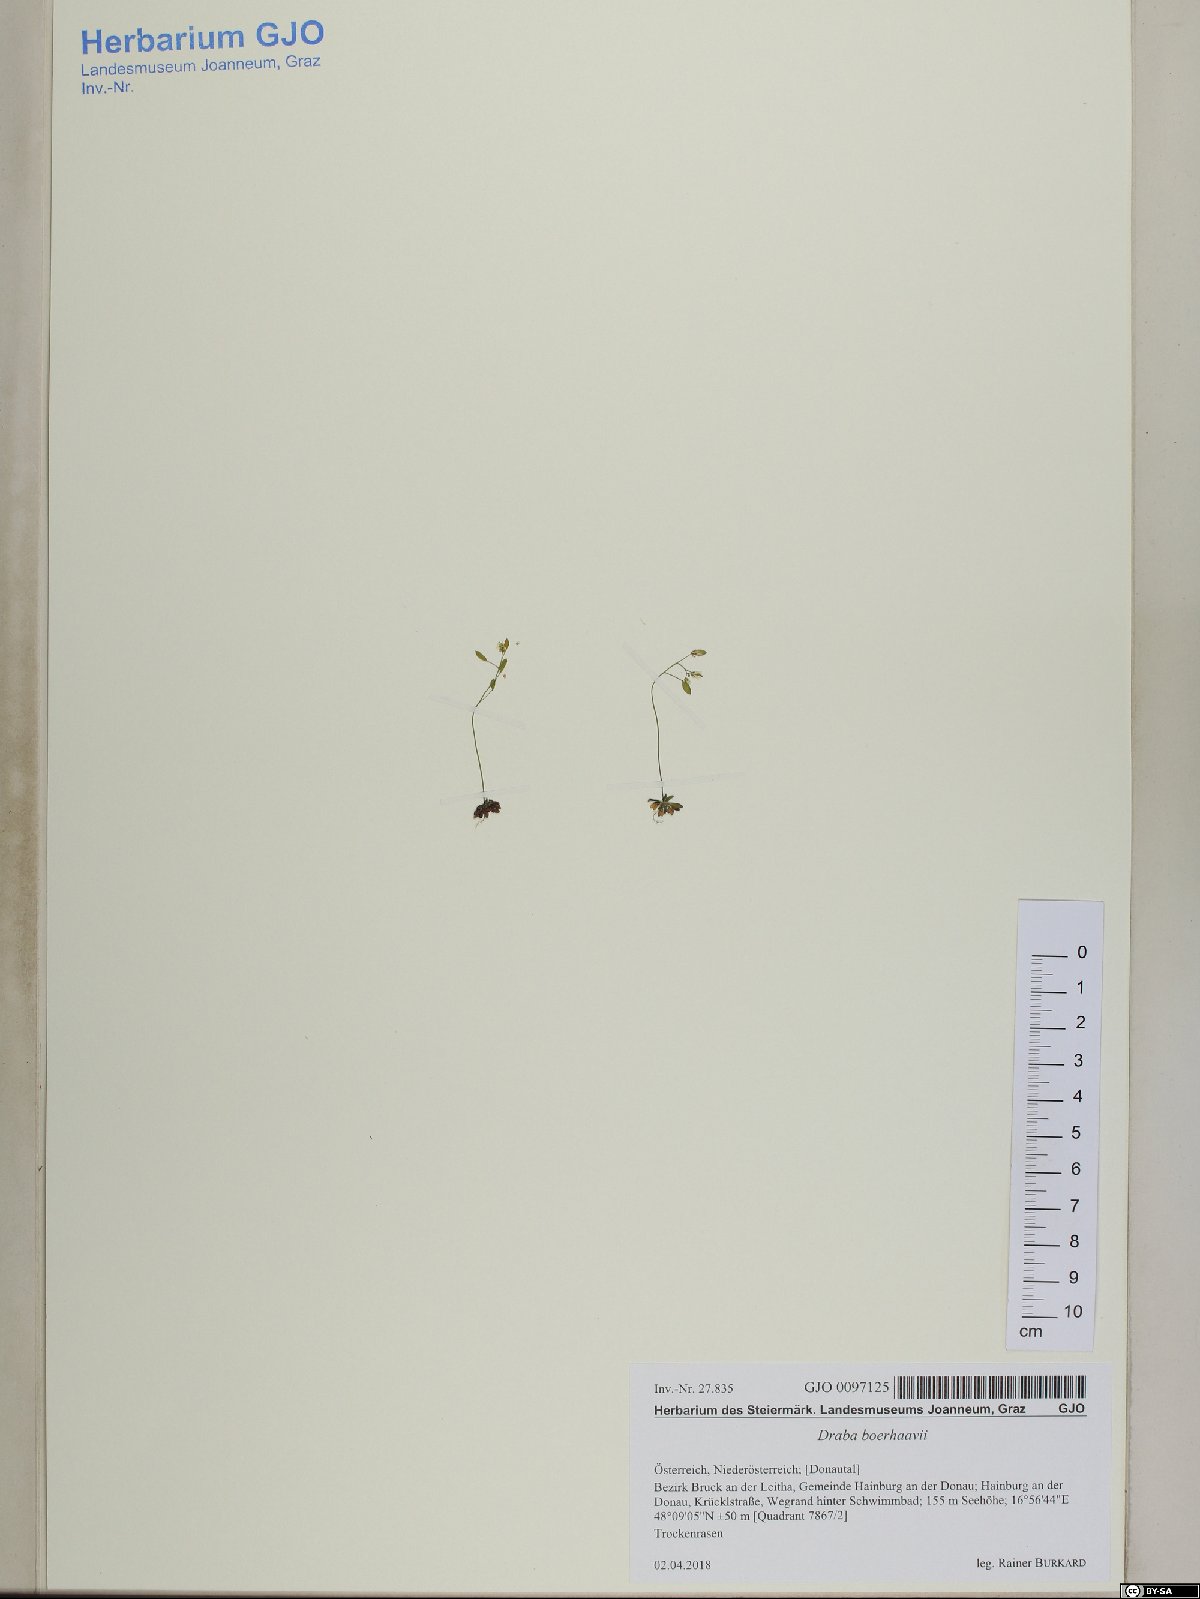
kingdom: Plantae
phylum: Tracheophyta
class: Magnoliopsida
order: Brassicales
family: Brassicaceae
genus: Draba
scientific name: Draba verna
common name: Spring draba
